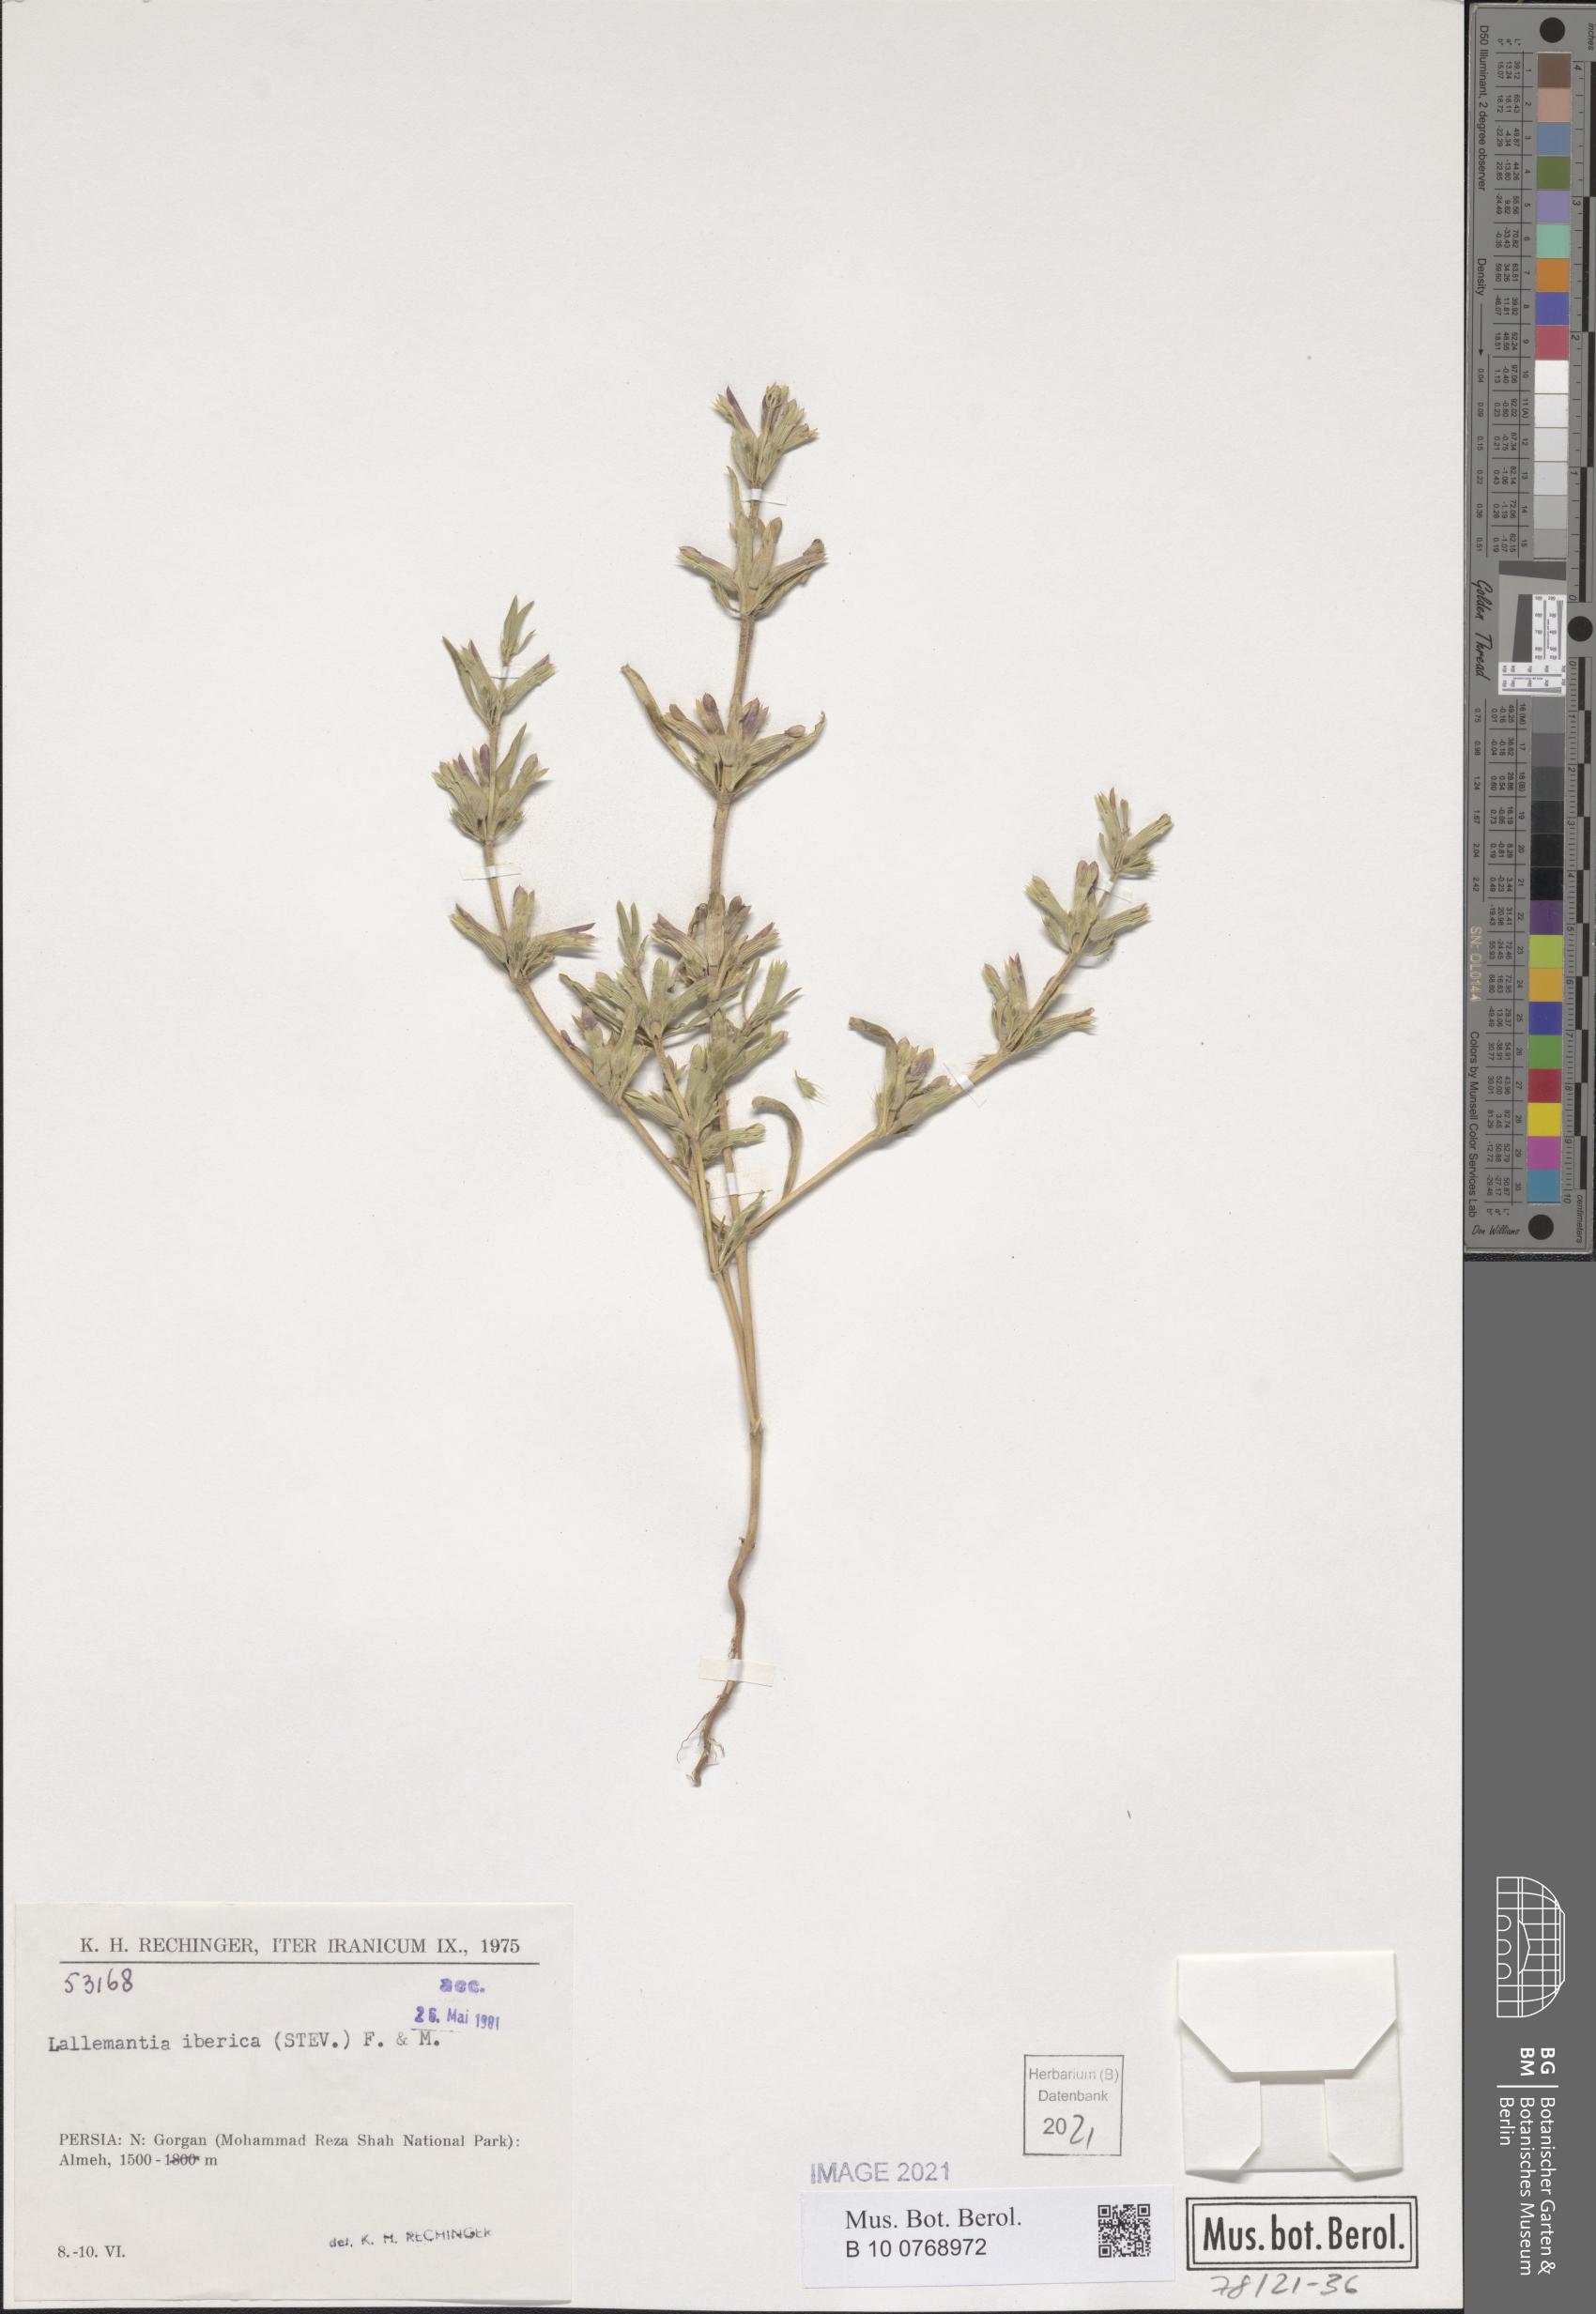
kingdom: Plantae
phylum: Tracheophyta
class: Magnoliopsida
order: Lamiales
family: Lamiaceae
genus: Lallemantia
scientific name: Lallemantia iberica
